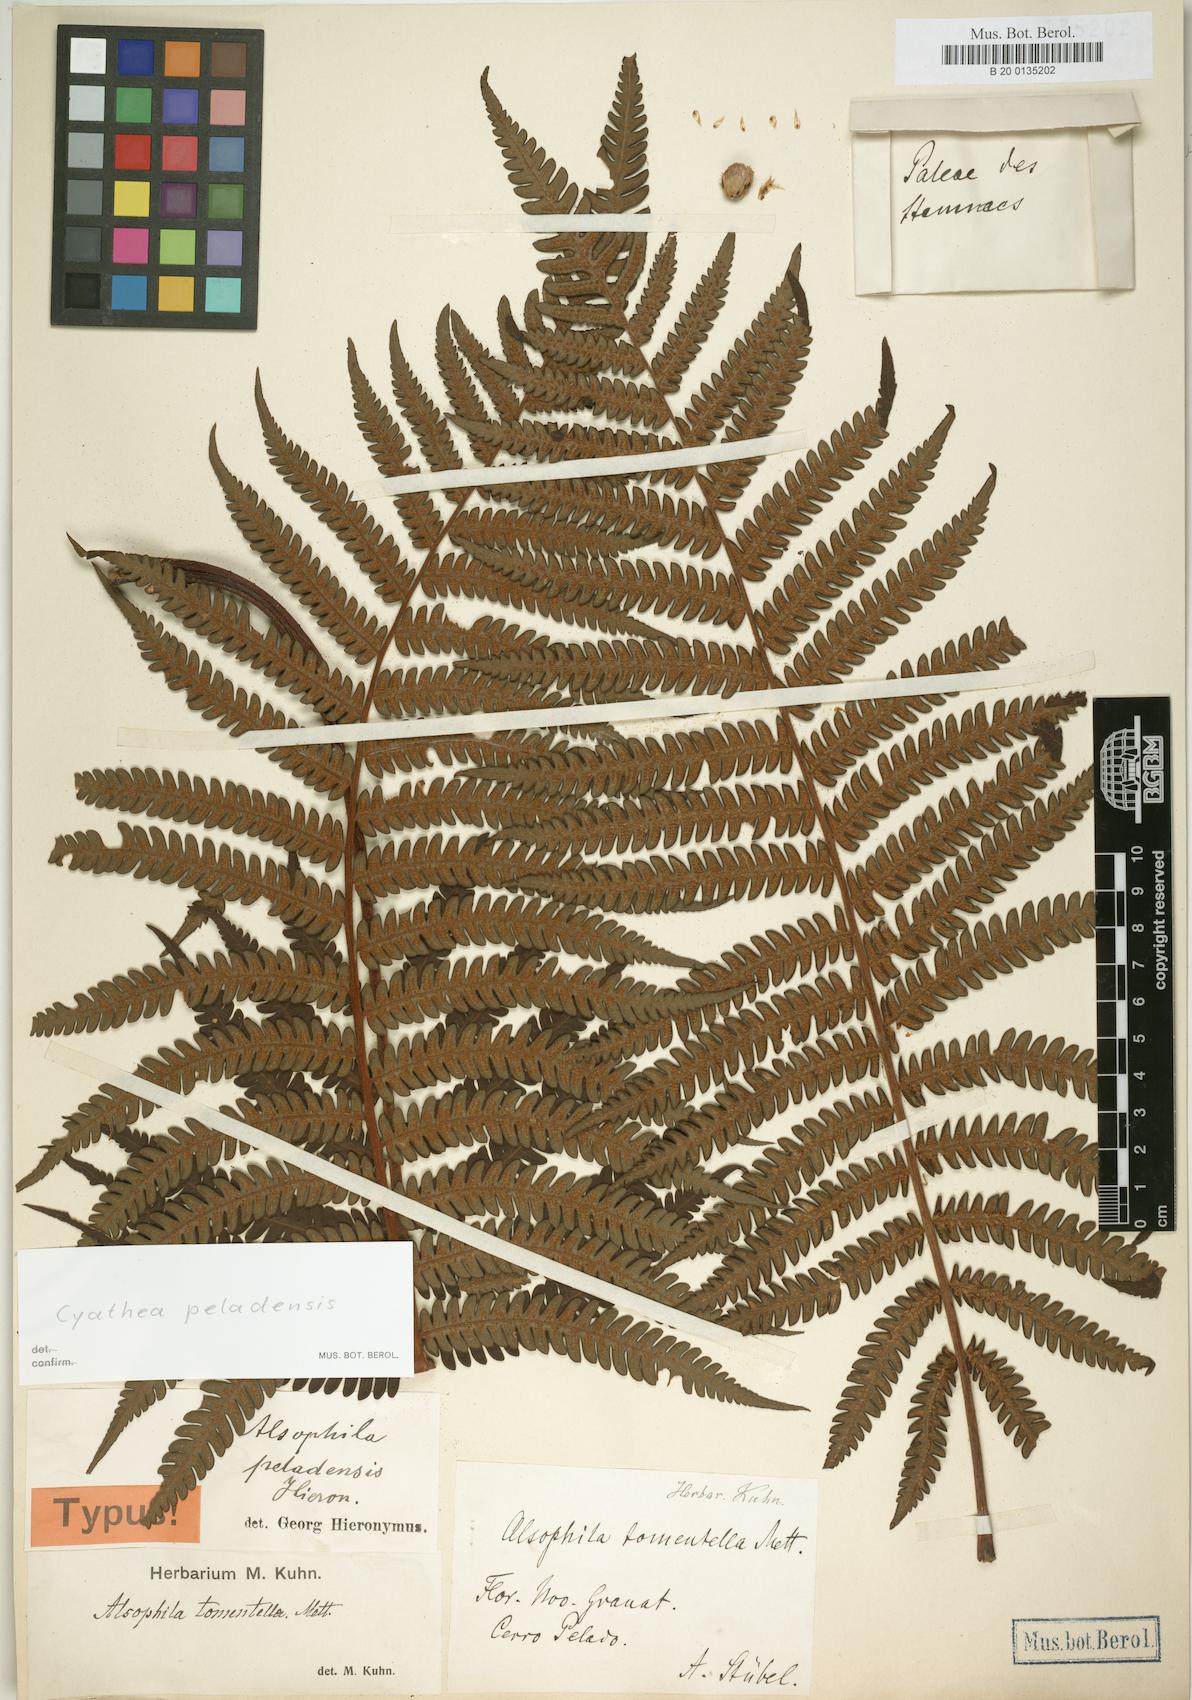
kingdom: Plantae
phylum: Tracheophyta
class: Polypodiopsida
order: Cyatheales
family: Cyatheaceae
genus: Cyathea
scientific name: Cyathea peladensis
